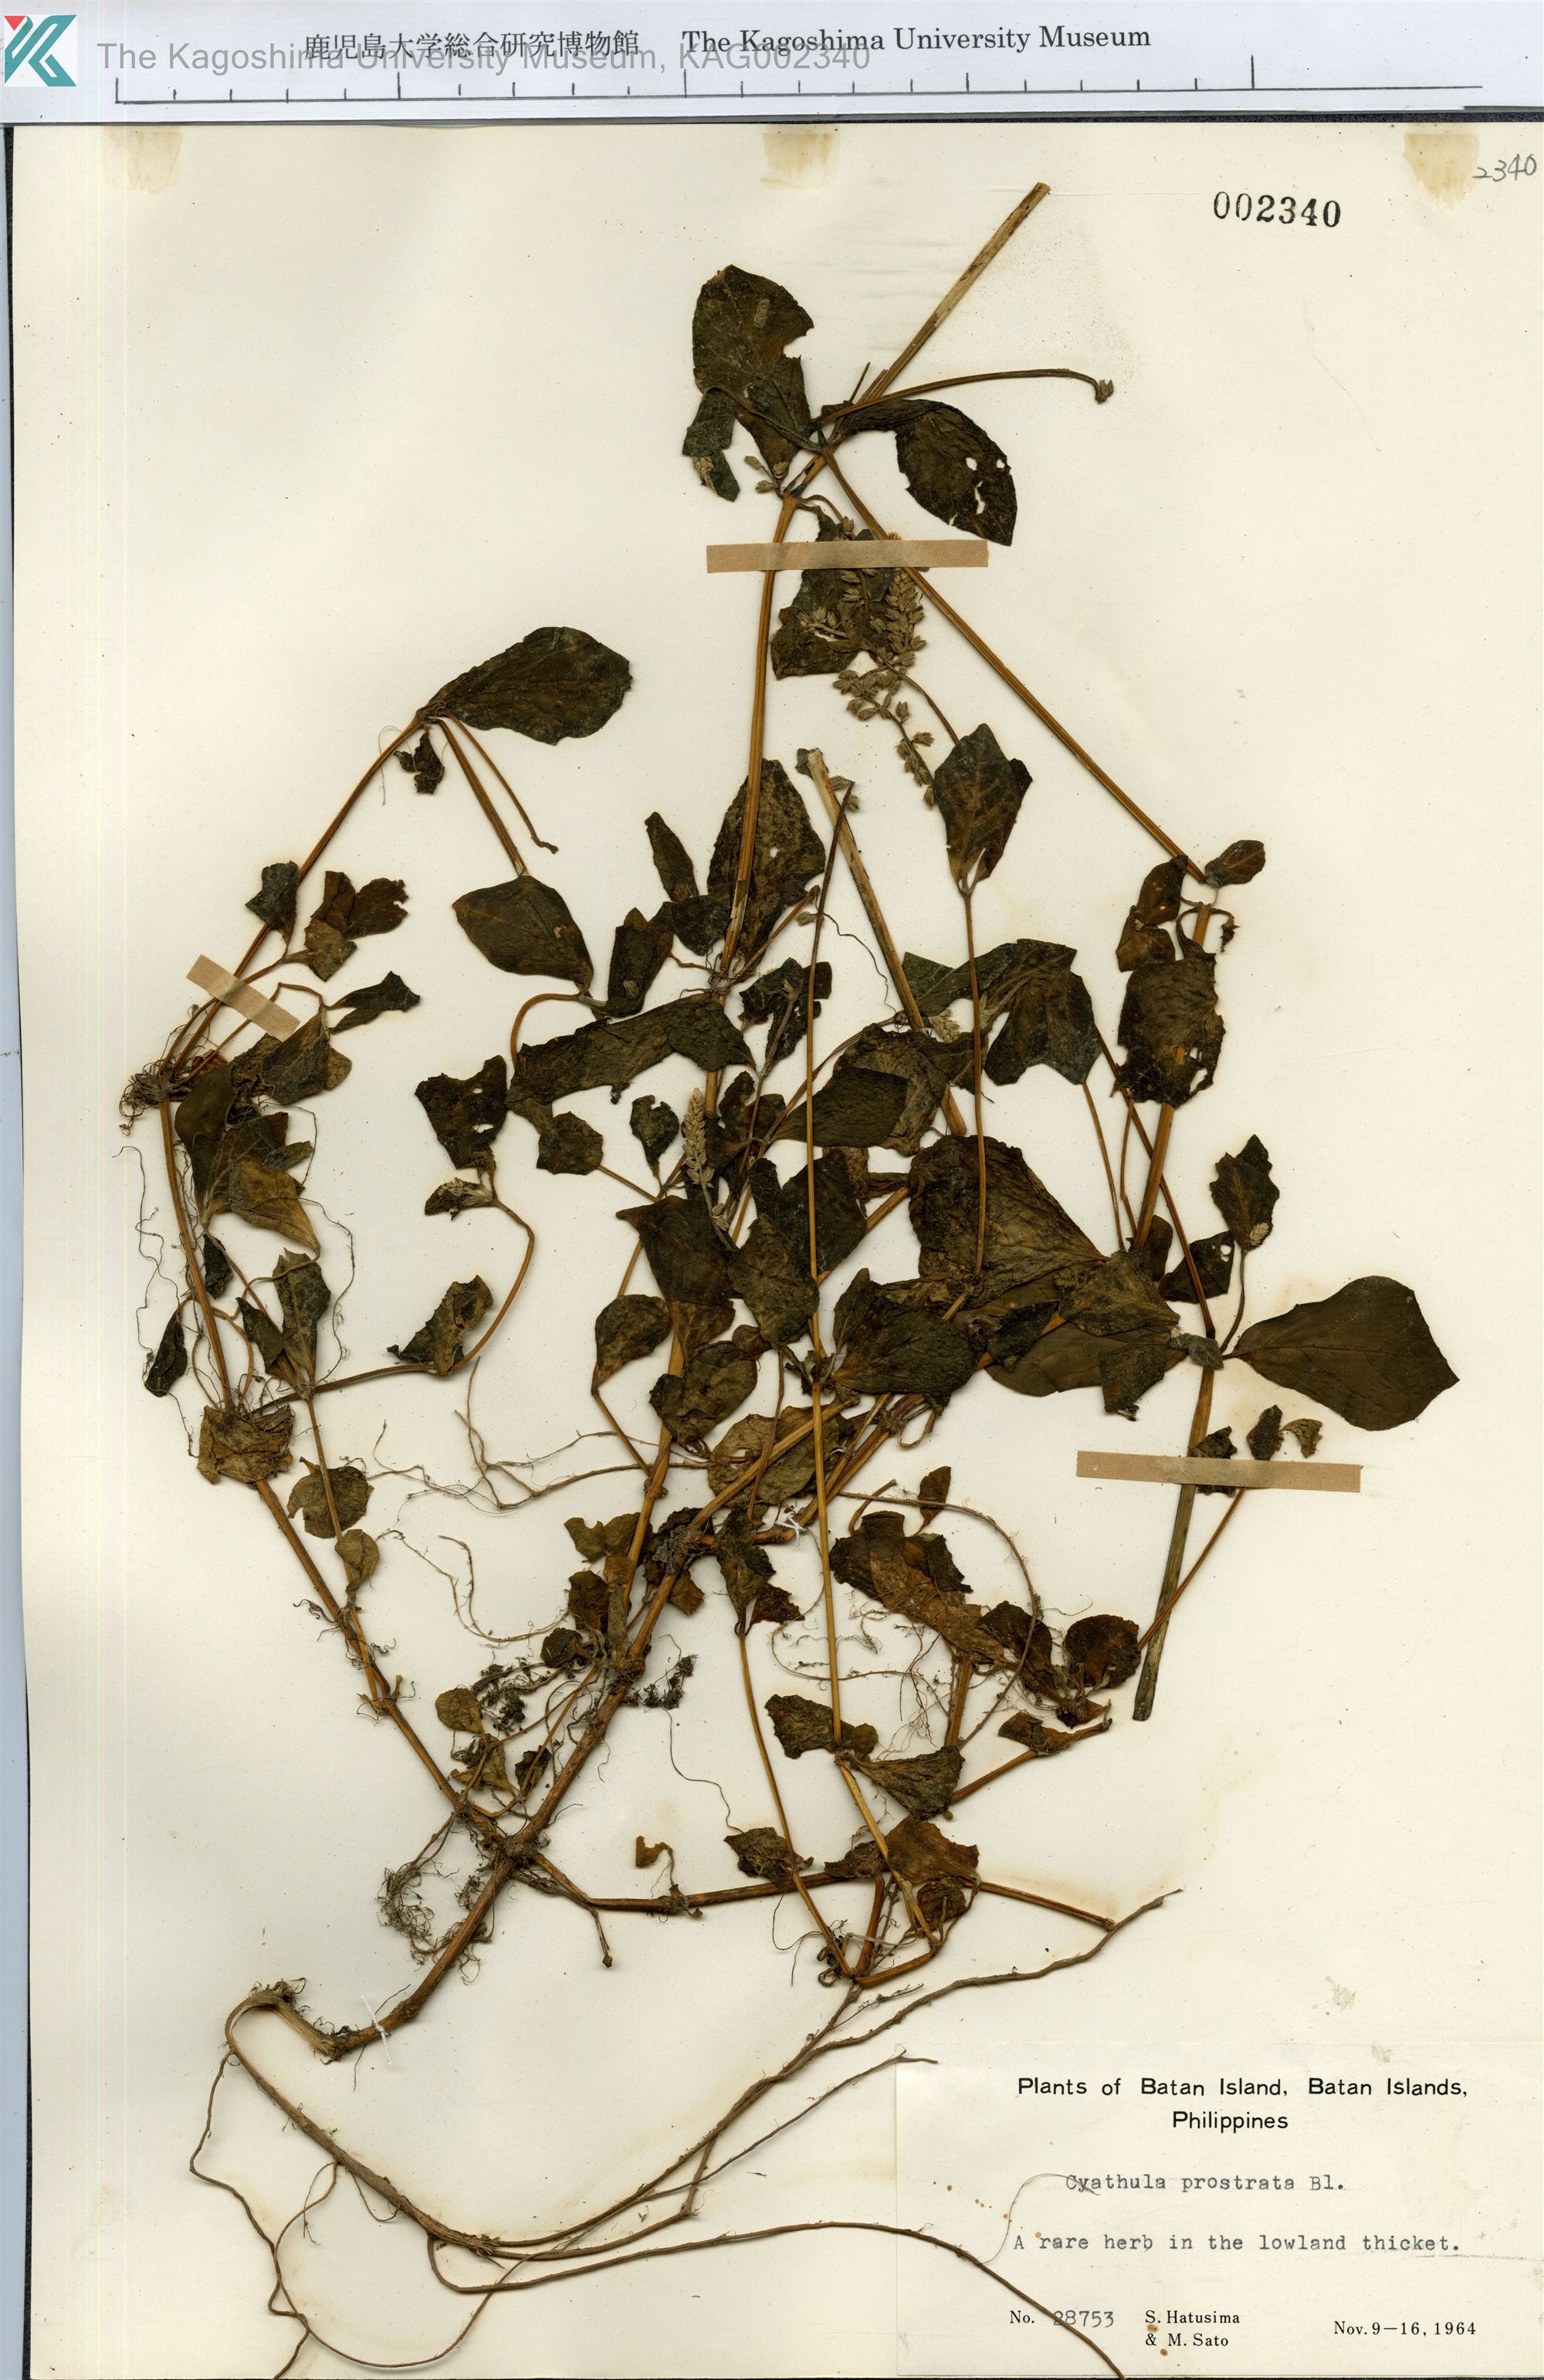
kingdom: Plantae
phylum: Tracheophyta
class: Magnoliopsida
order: Caryophyllales
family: Amaranthaceae
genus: Cyathula
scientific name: Cyathula prostrata
